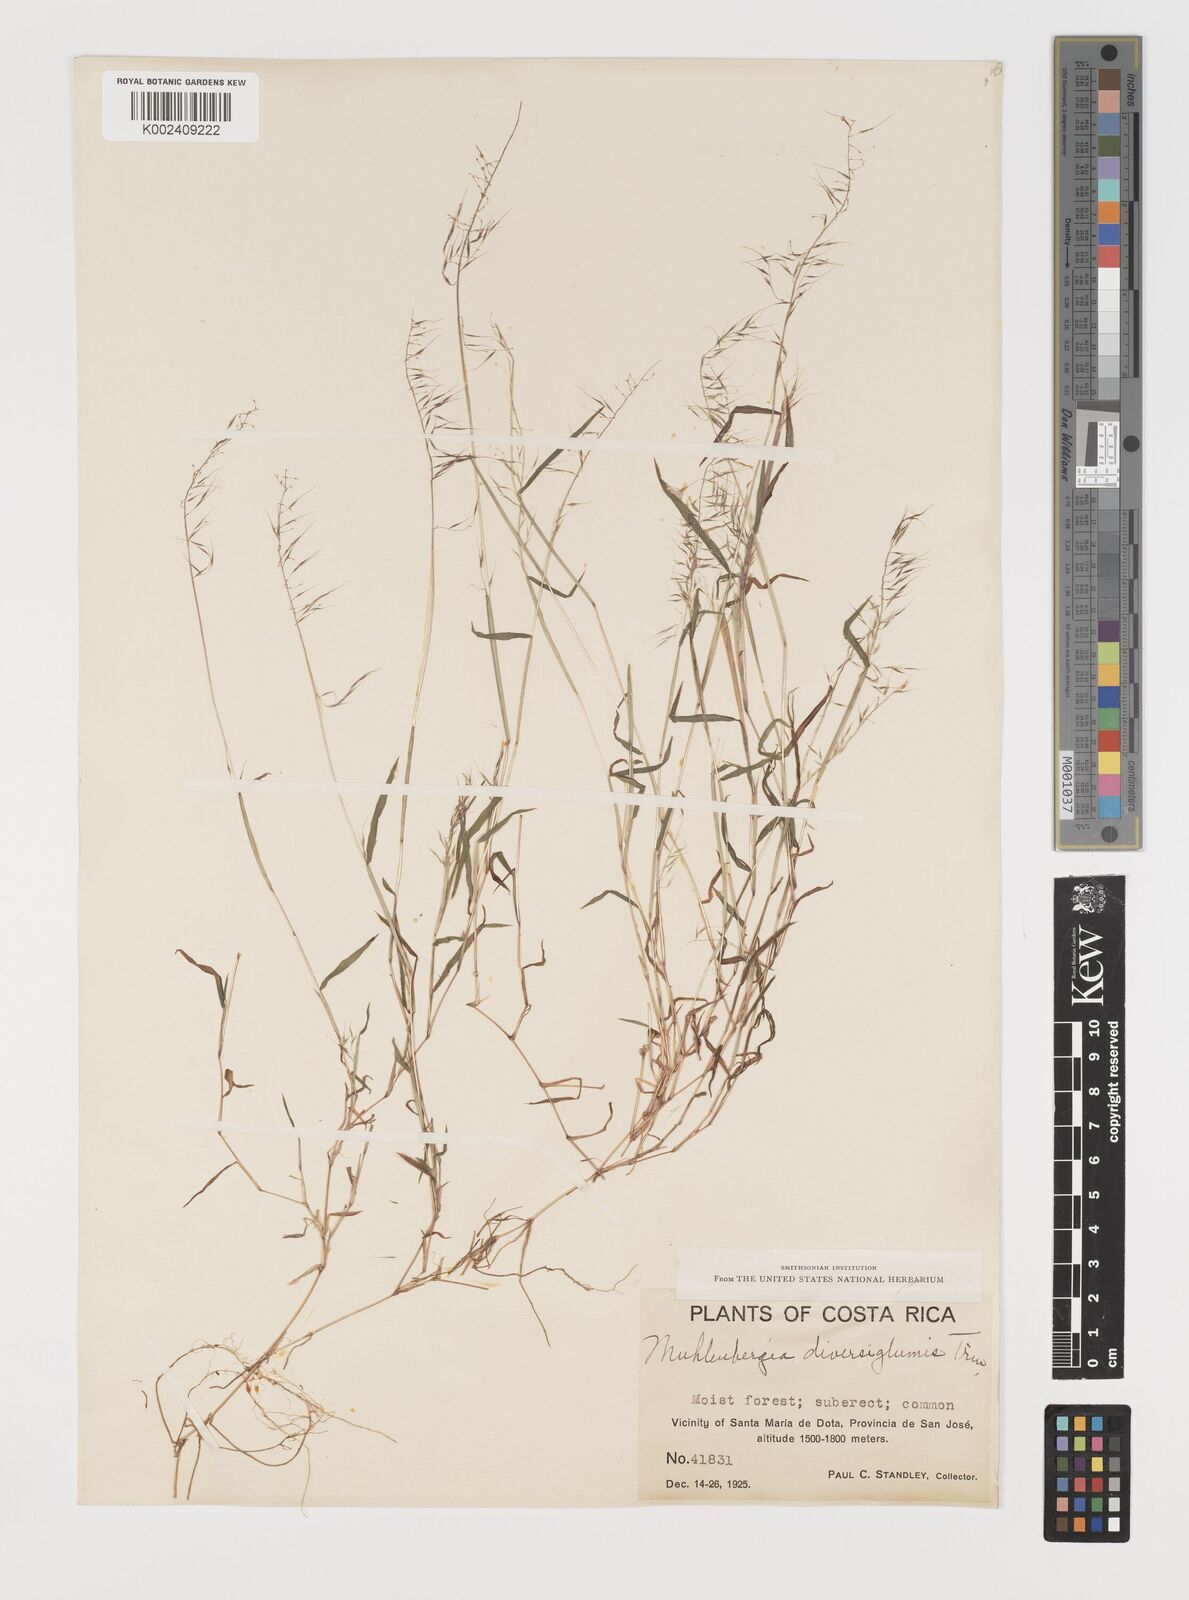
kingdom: Plantae
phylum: Tracheophyta
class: Liliopsida
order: Poales
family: Poaceae
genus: Muhlenbergia
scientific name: Muhlenbergia diversiglumis
